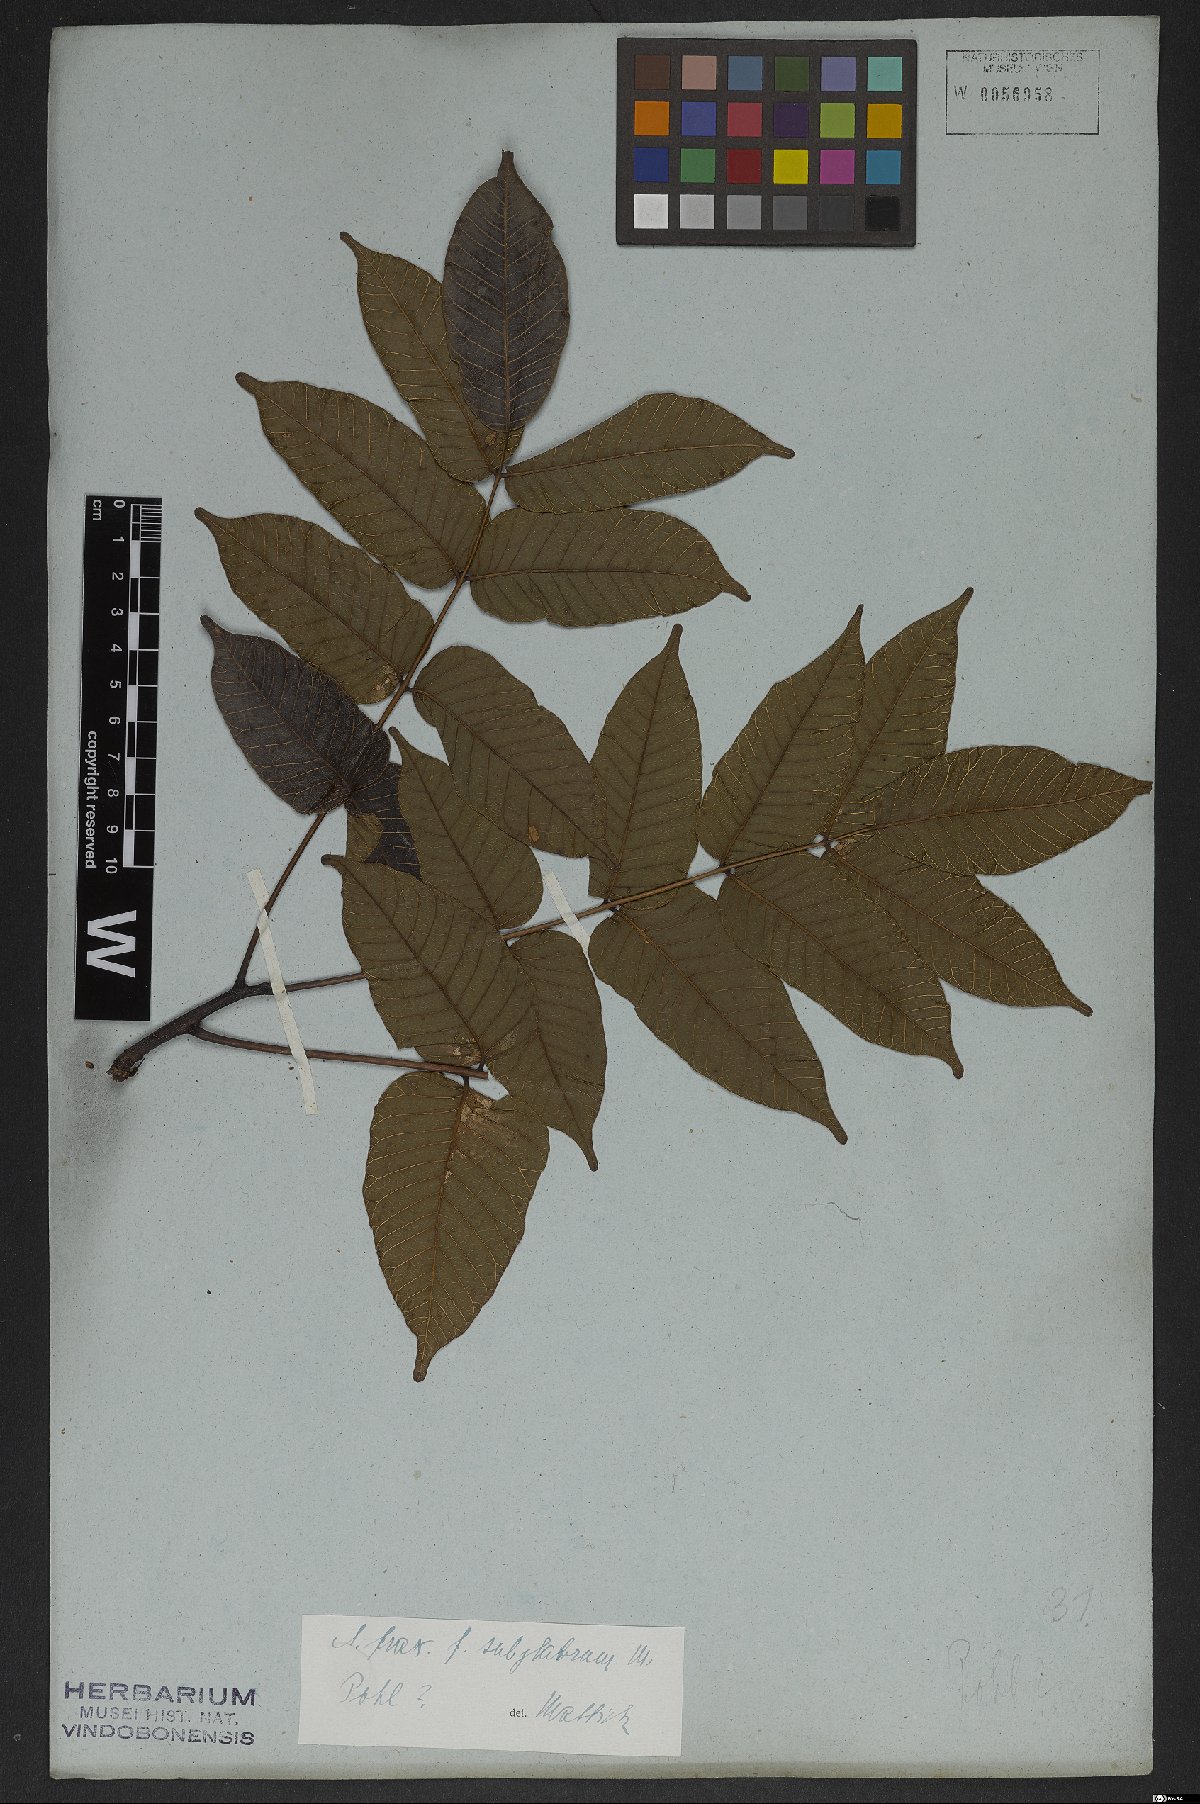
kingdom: Plantae
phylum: Tracheophyta
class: Magnoliopsida
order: Sapindales
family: Anacardiaceae
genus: Astronium
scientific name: Astronium fraxinifolium
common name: Tigerwood
